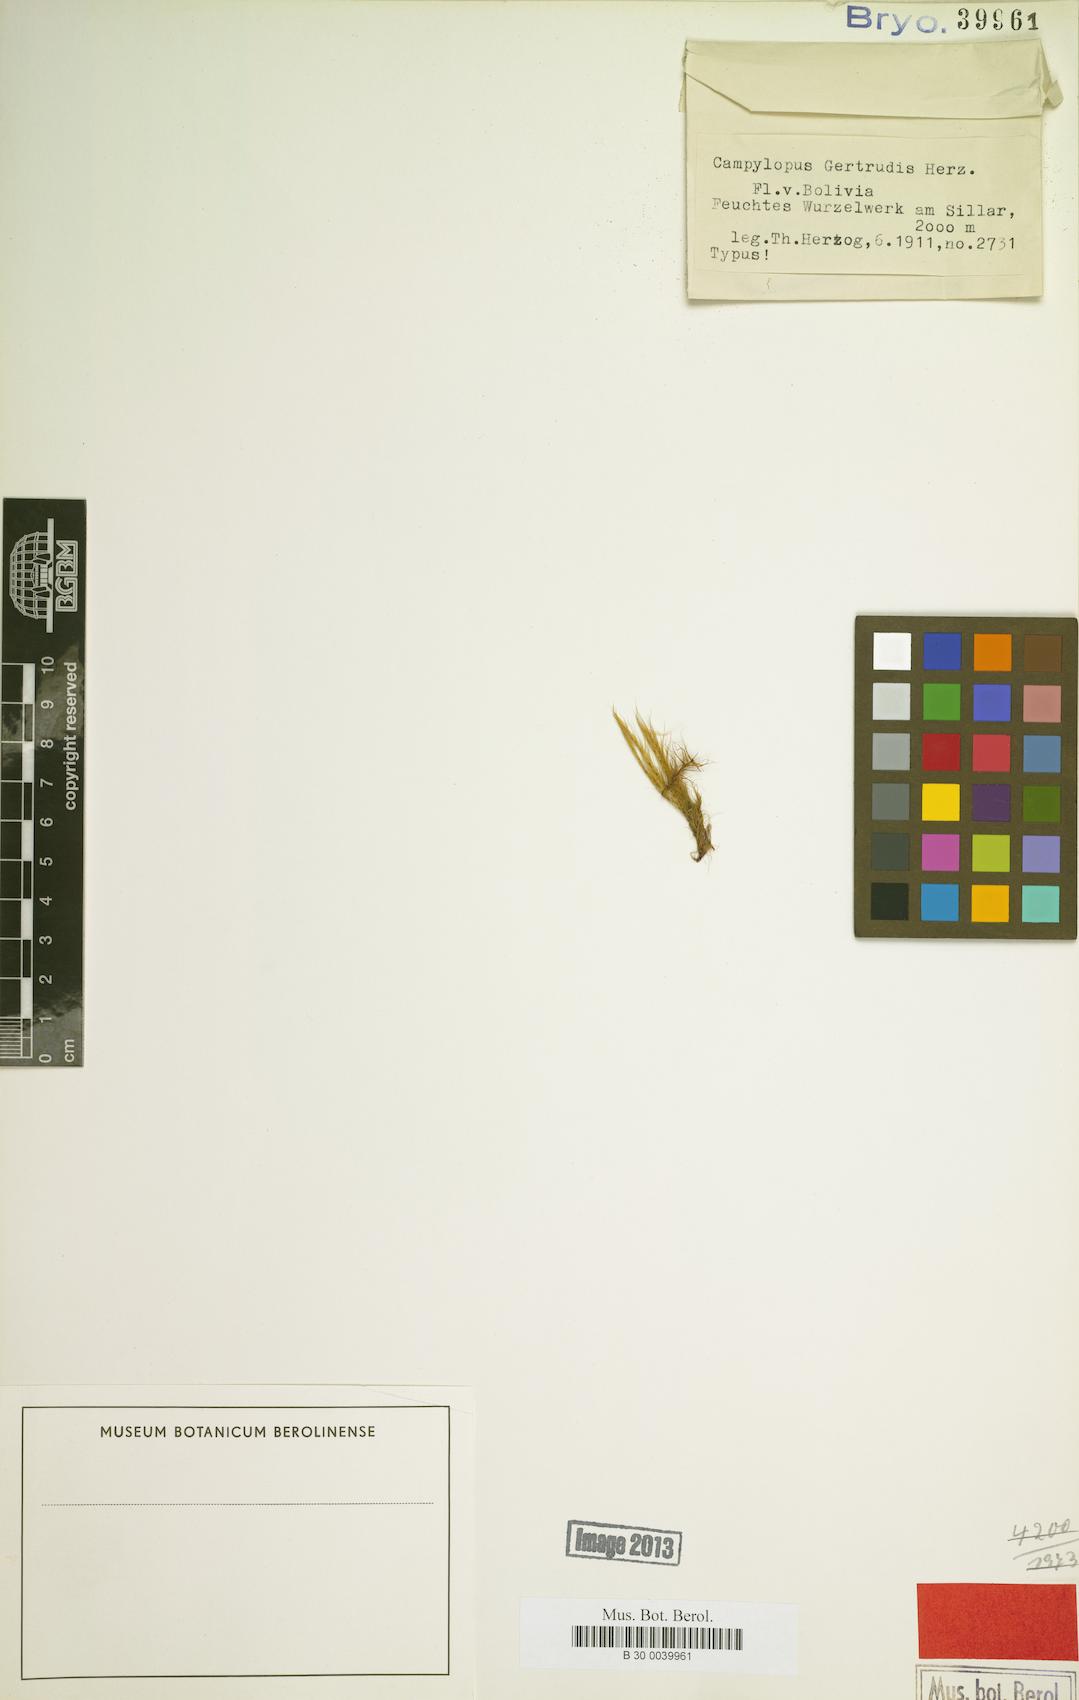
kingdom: Plantae
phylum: Bryophyta
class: Bryopsida
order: Dicranales
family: Leucobryaceae
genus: Campylopus
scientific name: Campylopus densicoma
